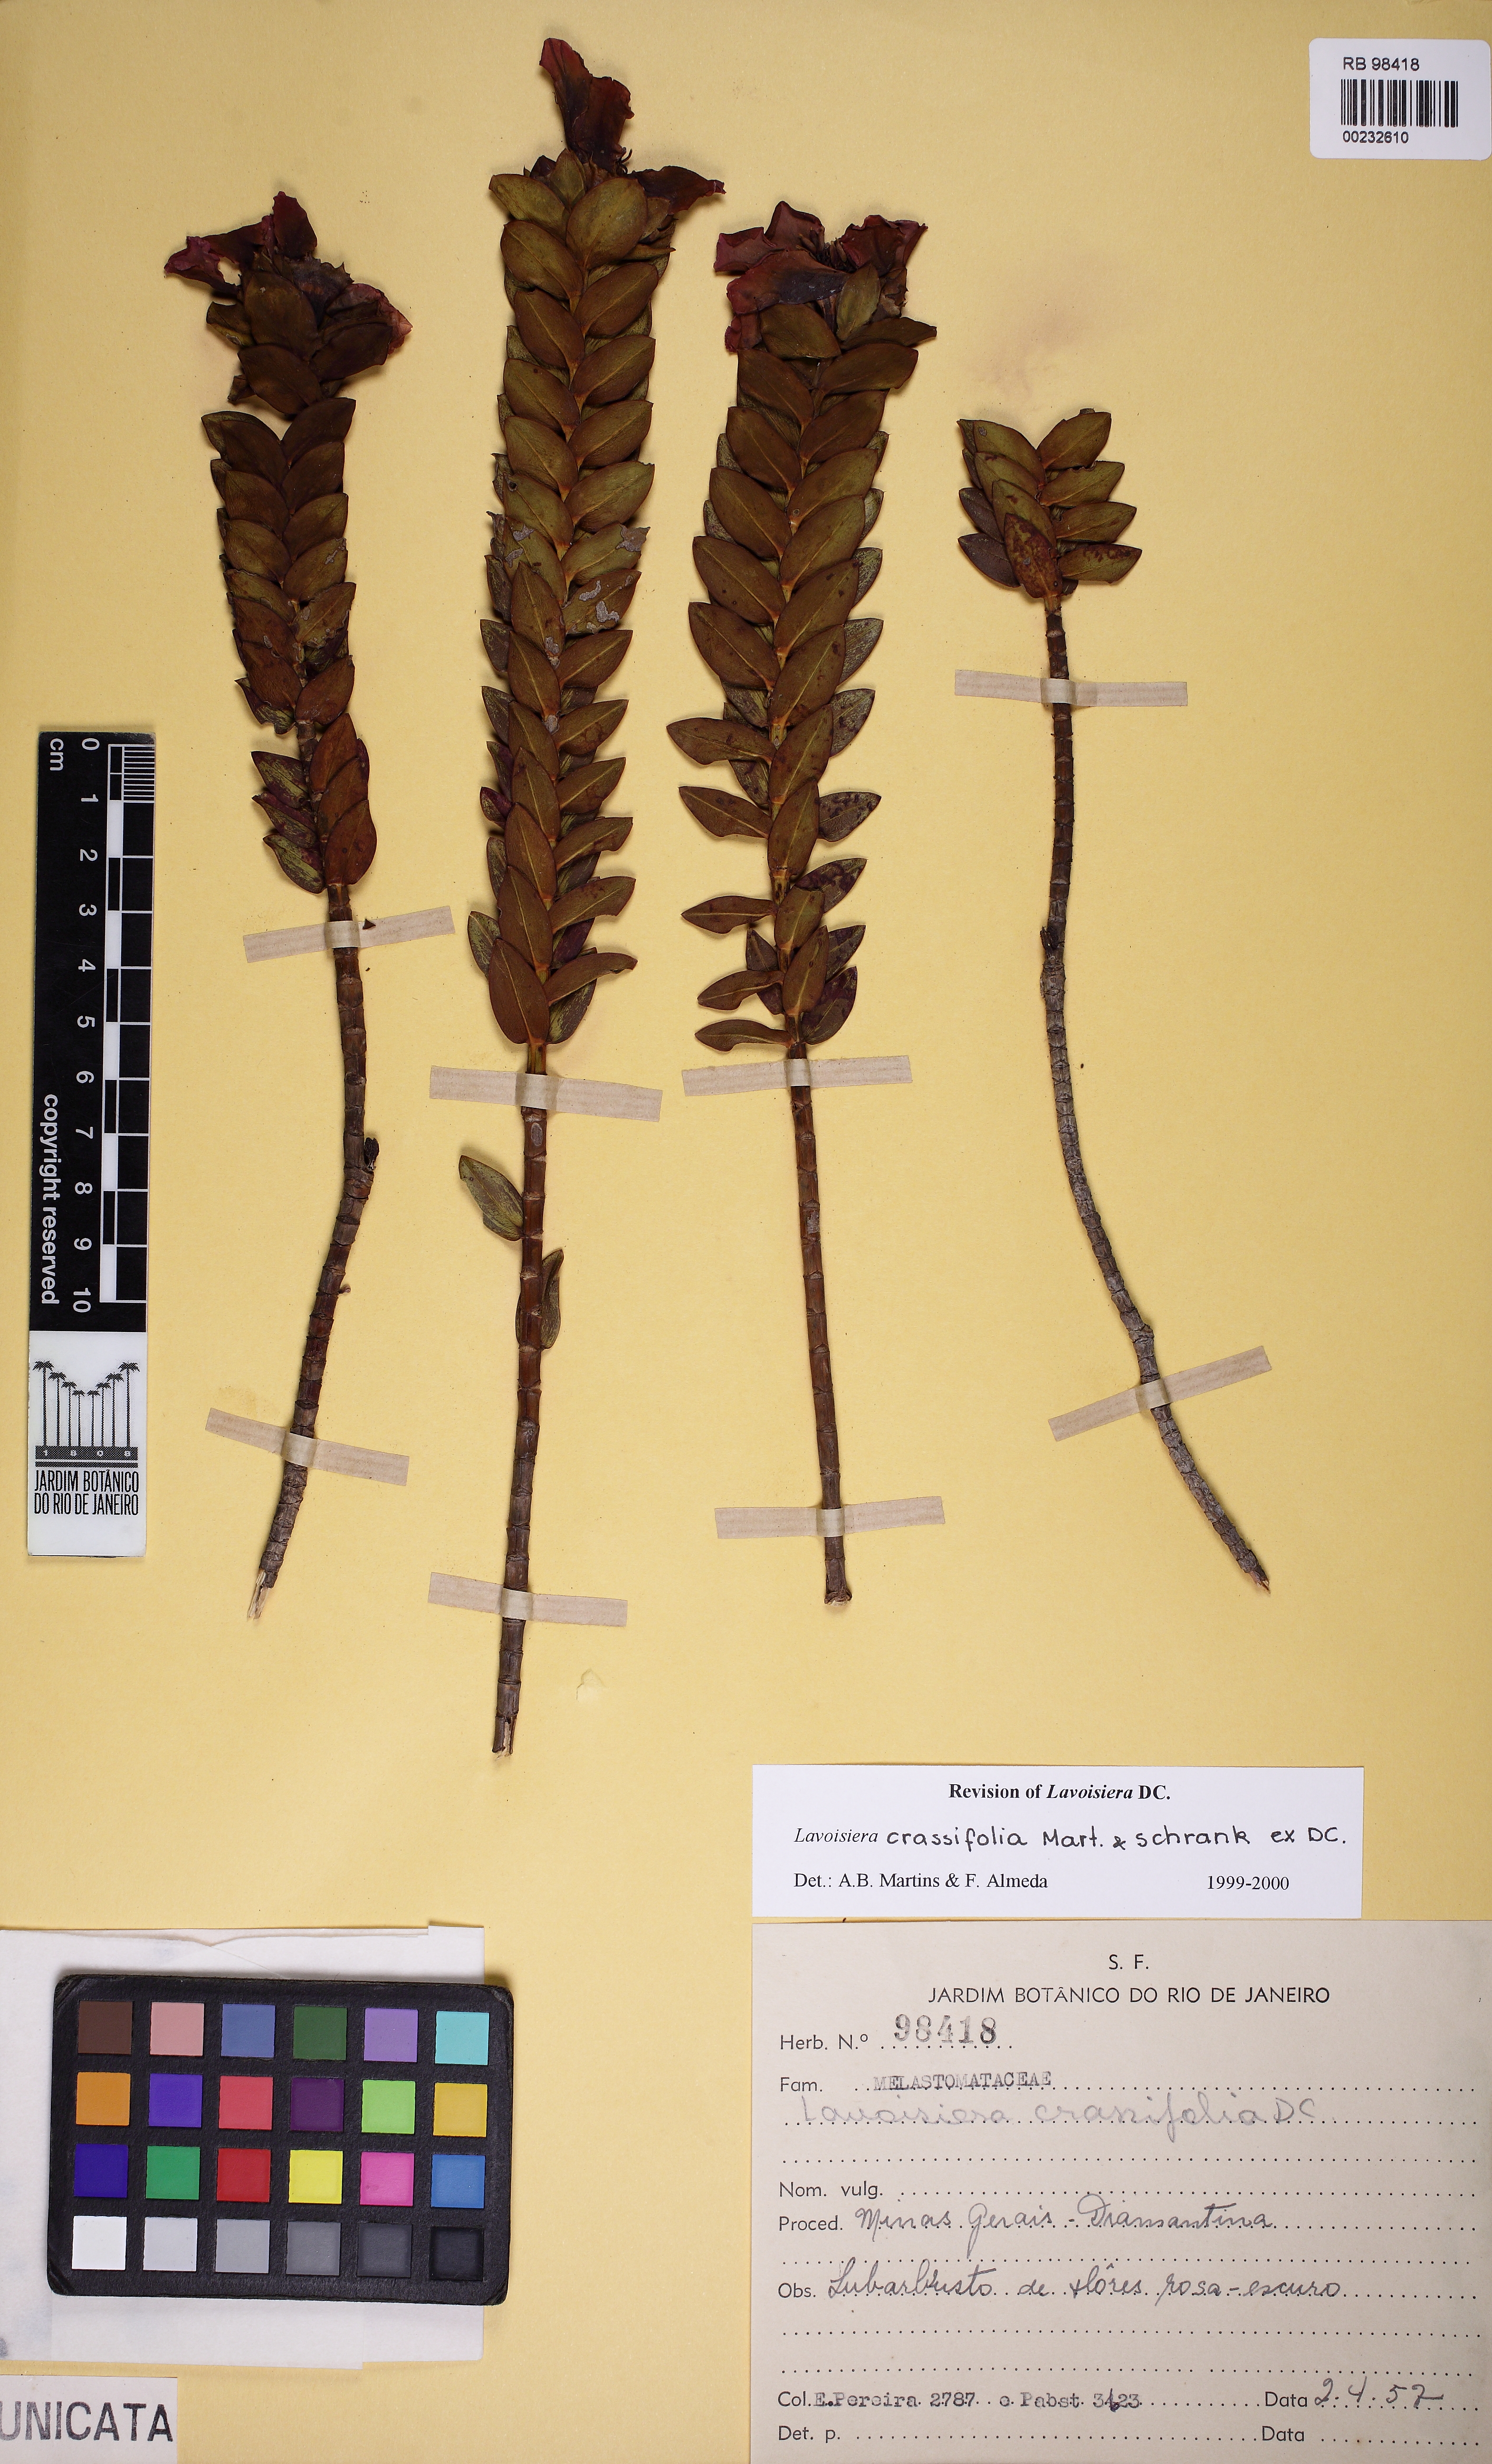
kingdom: Plantae
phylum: Tracheophyta
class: Magnoliopsida
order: Myrtales
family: Melastomataceae
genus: Microlicia
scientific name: Microlicia crassifolia
